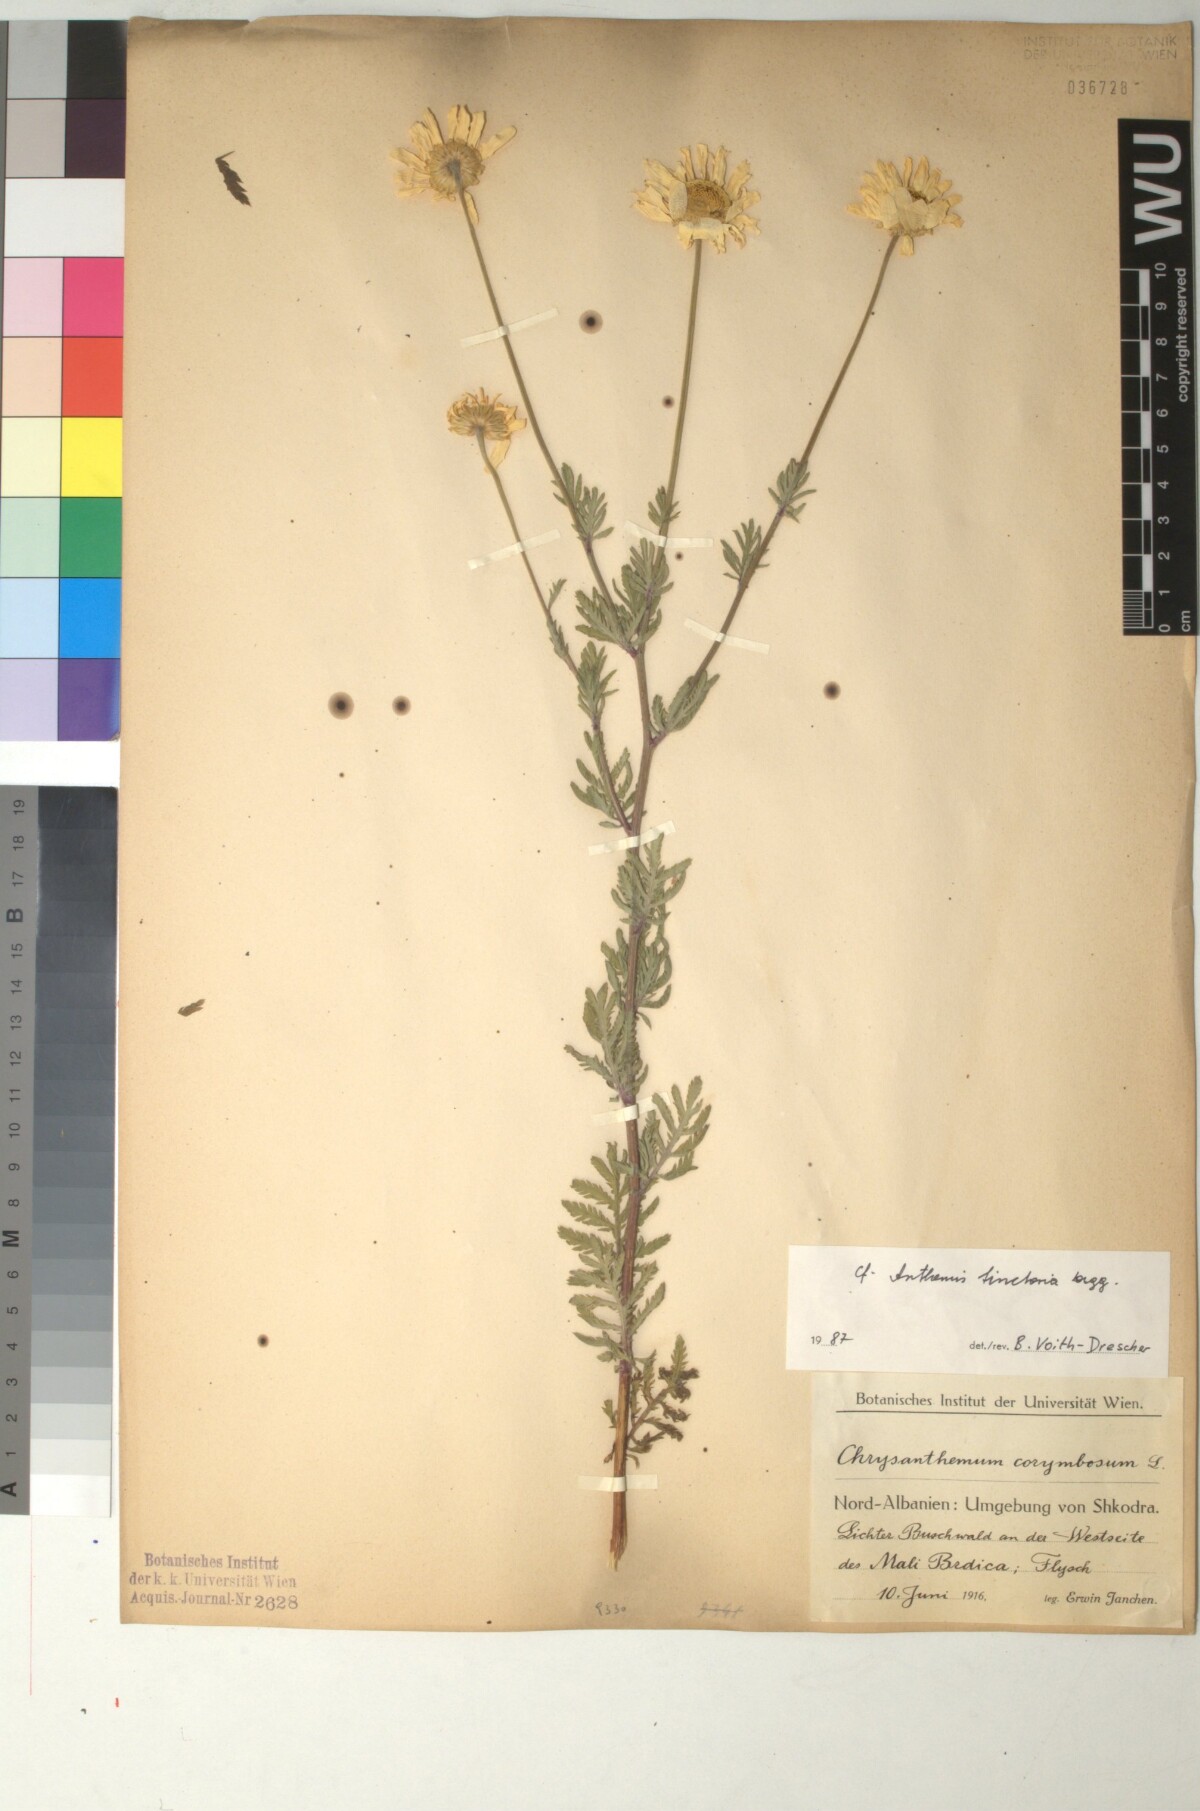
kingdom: Plantae
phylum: Tracheophyta
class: Magnoliopsida
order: Asterales
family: Asteraceae
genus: Cota
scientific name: Cota tinctoria
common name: Golden chamomile
